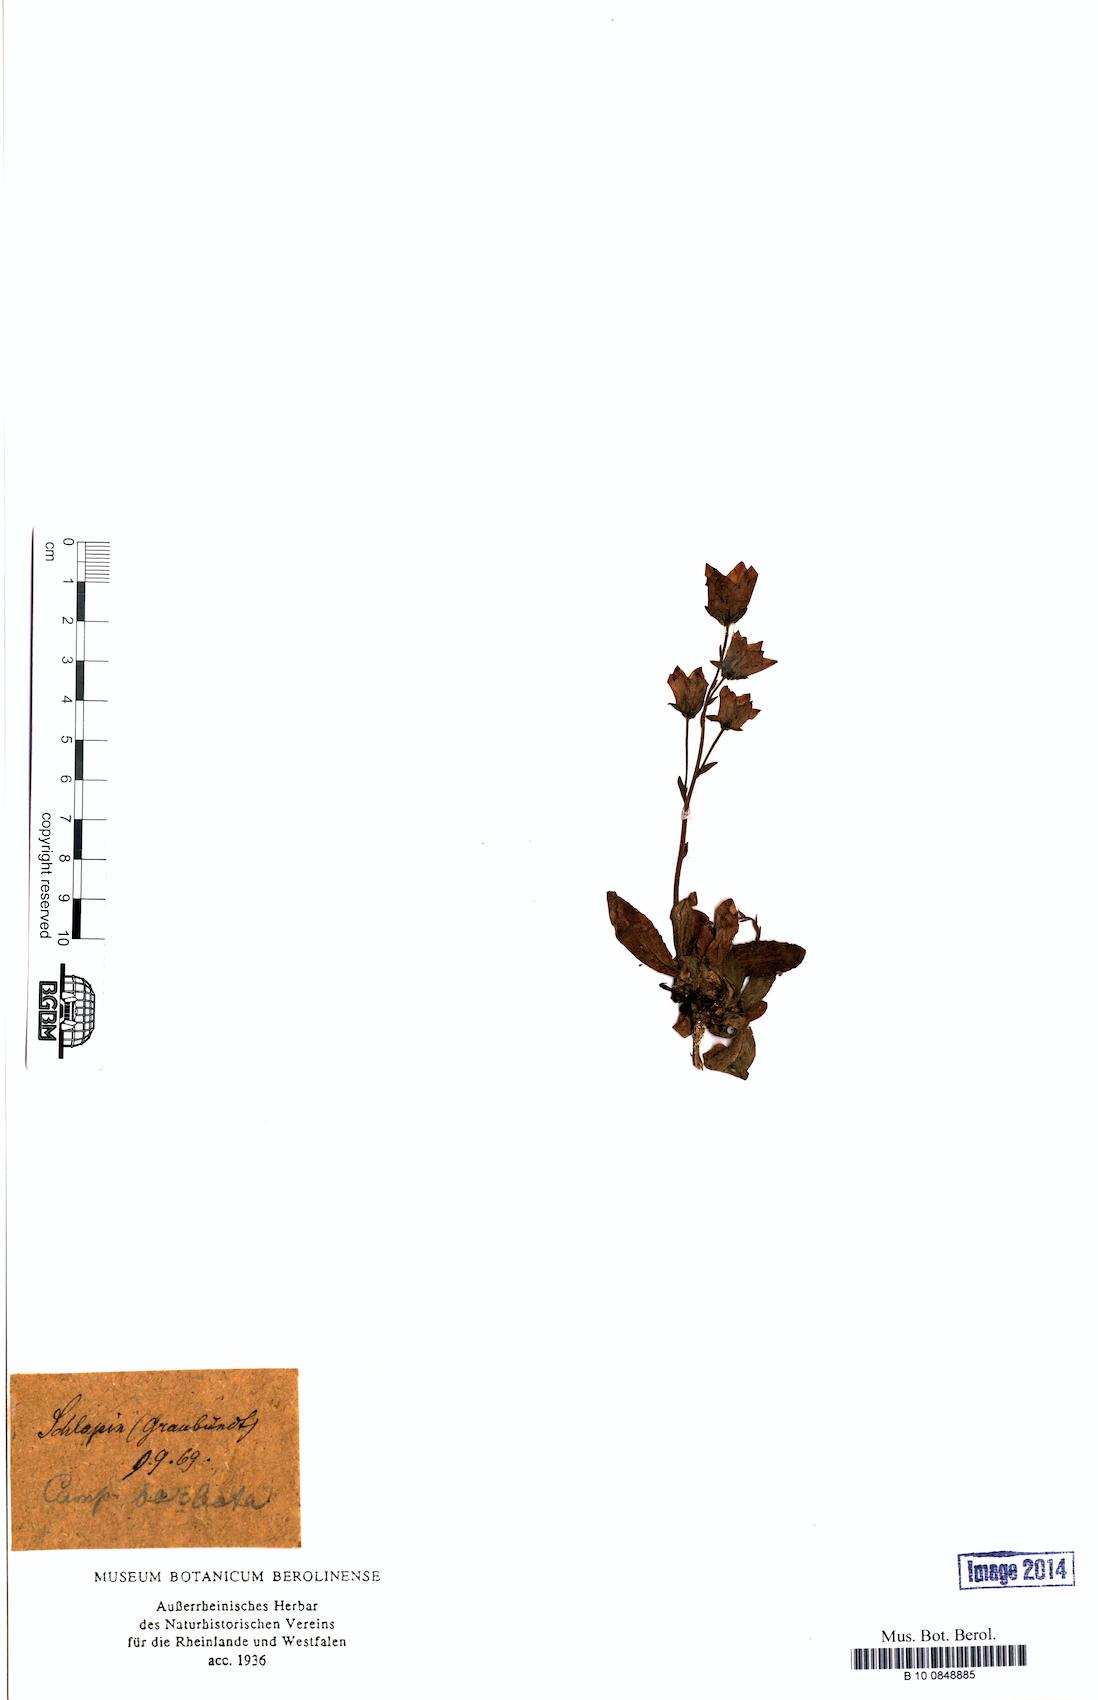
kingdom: Plantae
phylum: Tracheophyta
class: Magnoliopsida
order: Asterales
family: Campanulaceae
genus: Campanula
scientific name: Campanula barbata
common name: Bearded bellflower
